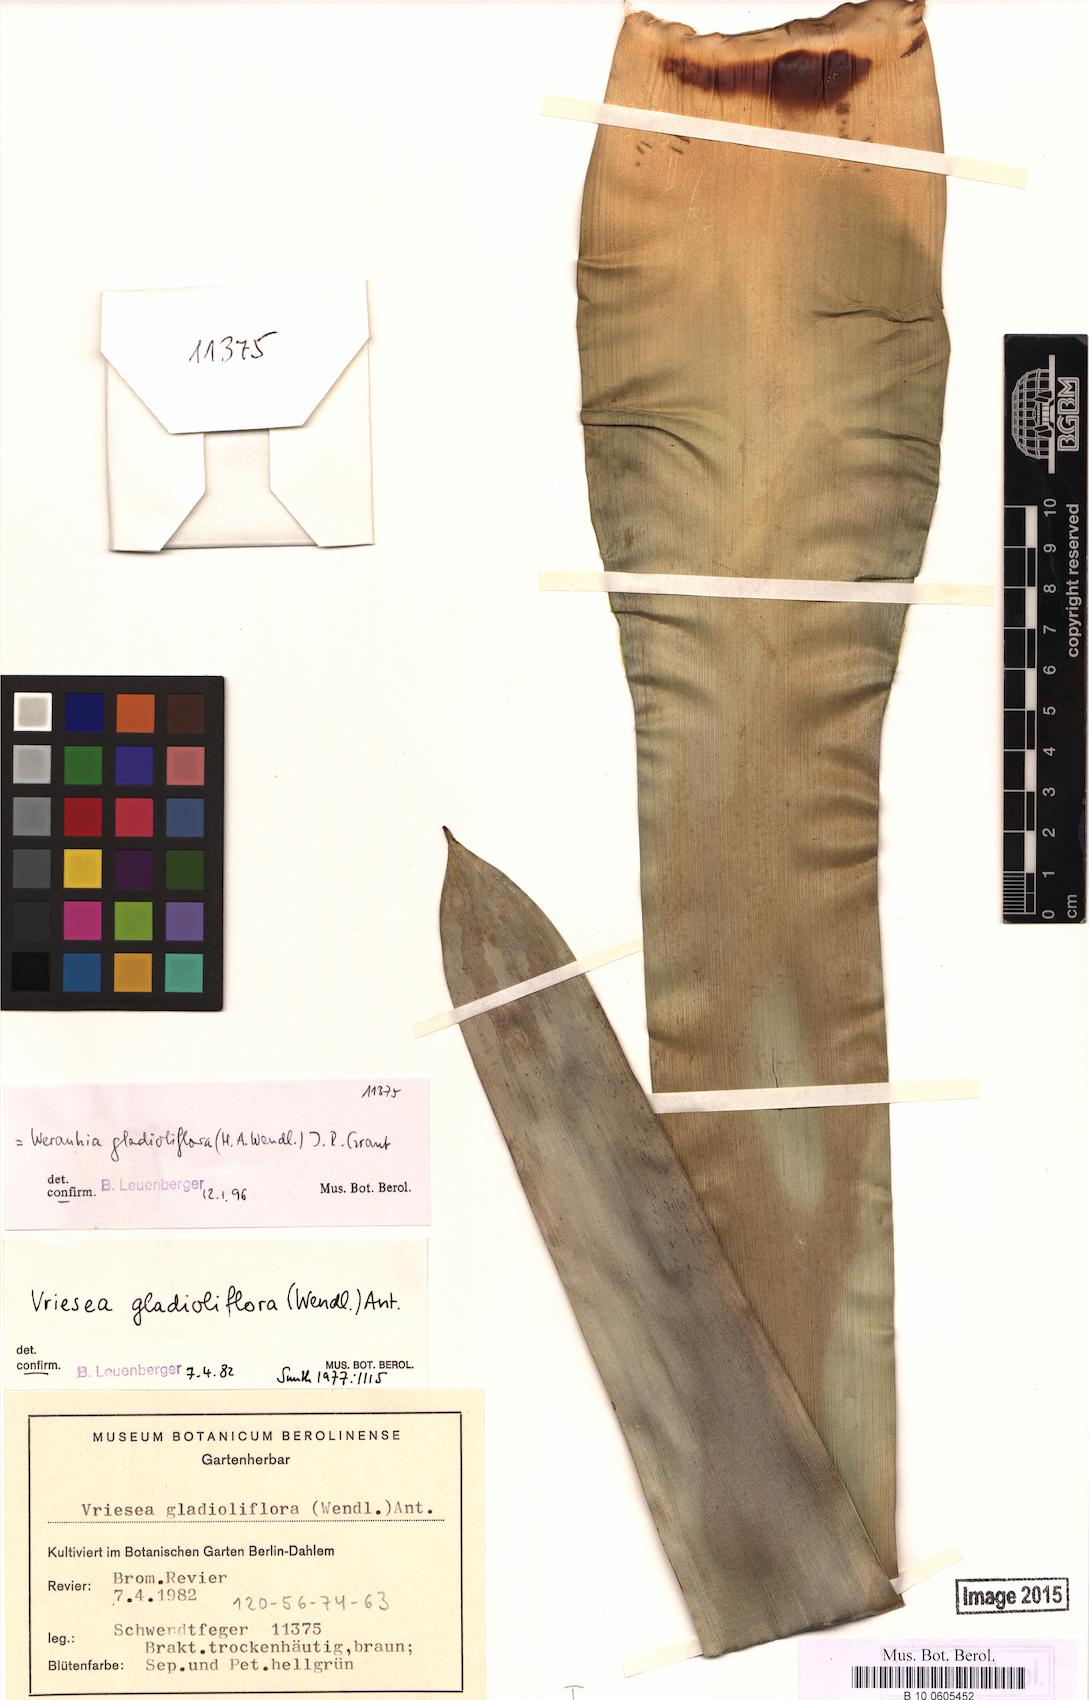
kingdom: Plantae
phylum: Tracheophyta
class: Liliopsida
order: Poales
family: Bromeliaceae
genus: Werauhia
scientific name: Werauhia gladioliflora
